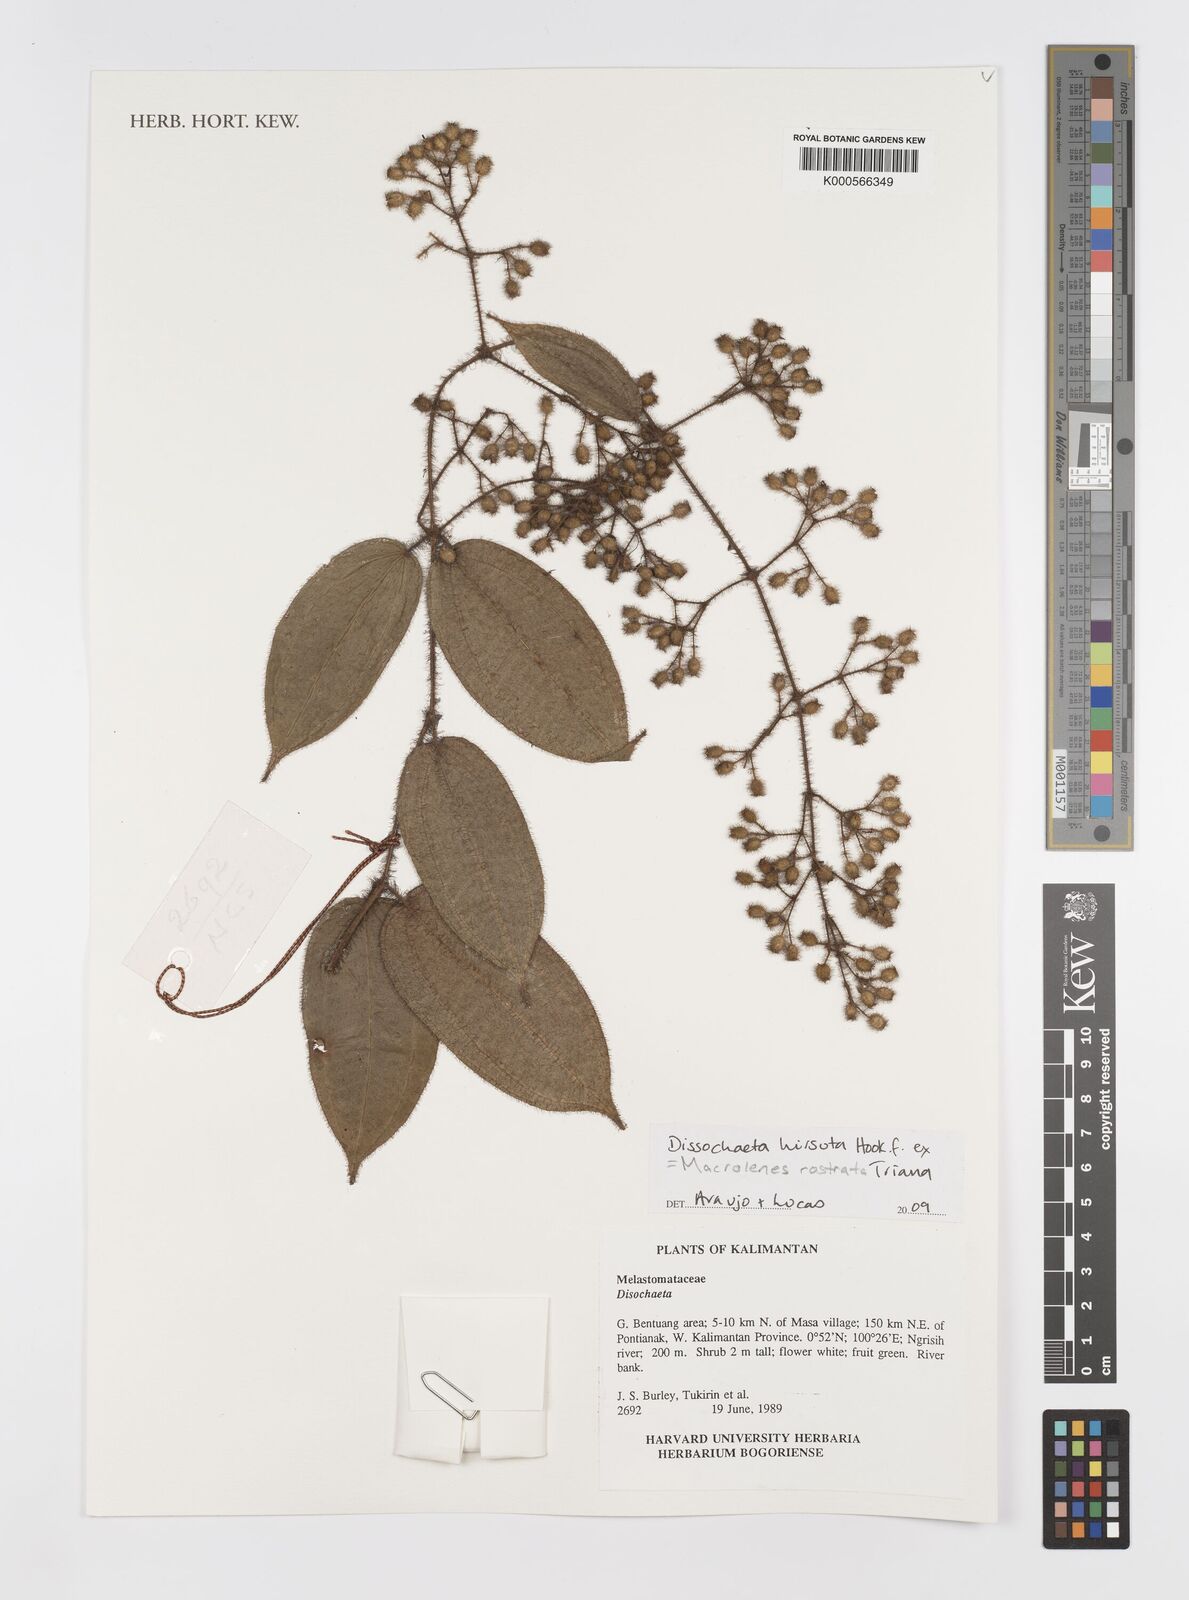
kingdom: Plantae
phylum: Tracheophyta
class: Magnoliopsida
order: Myrtales
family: Melastomataceae
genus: Macrolenes
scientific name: Macrolenes rostrata
